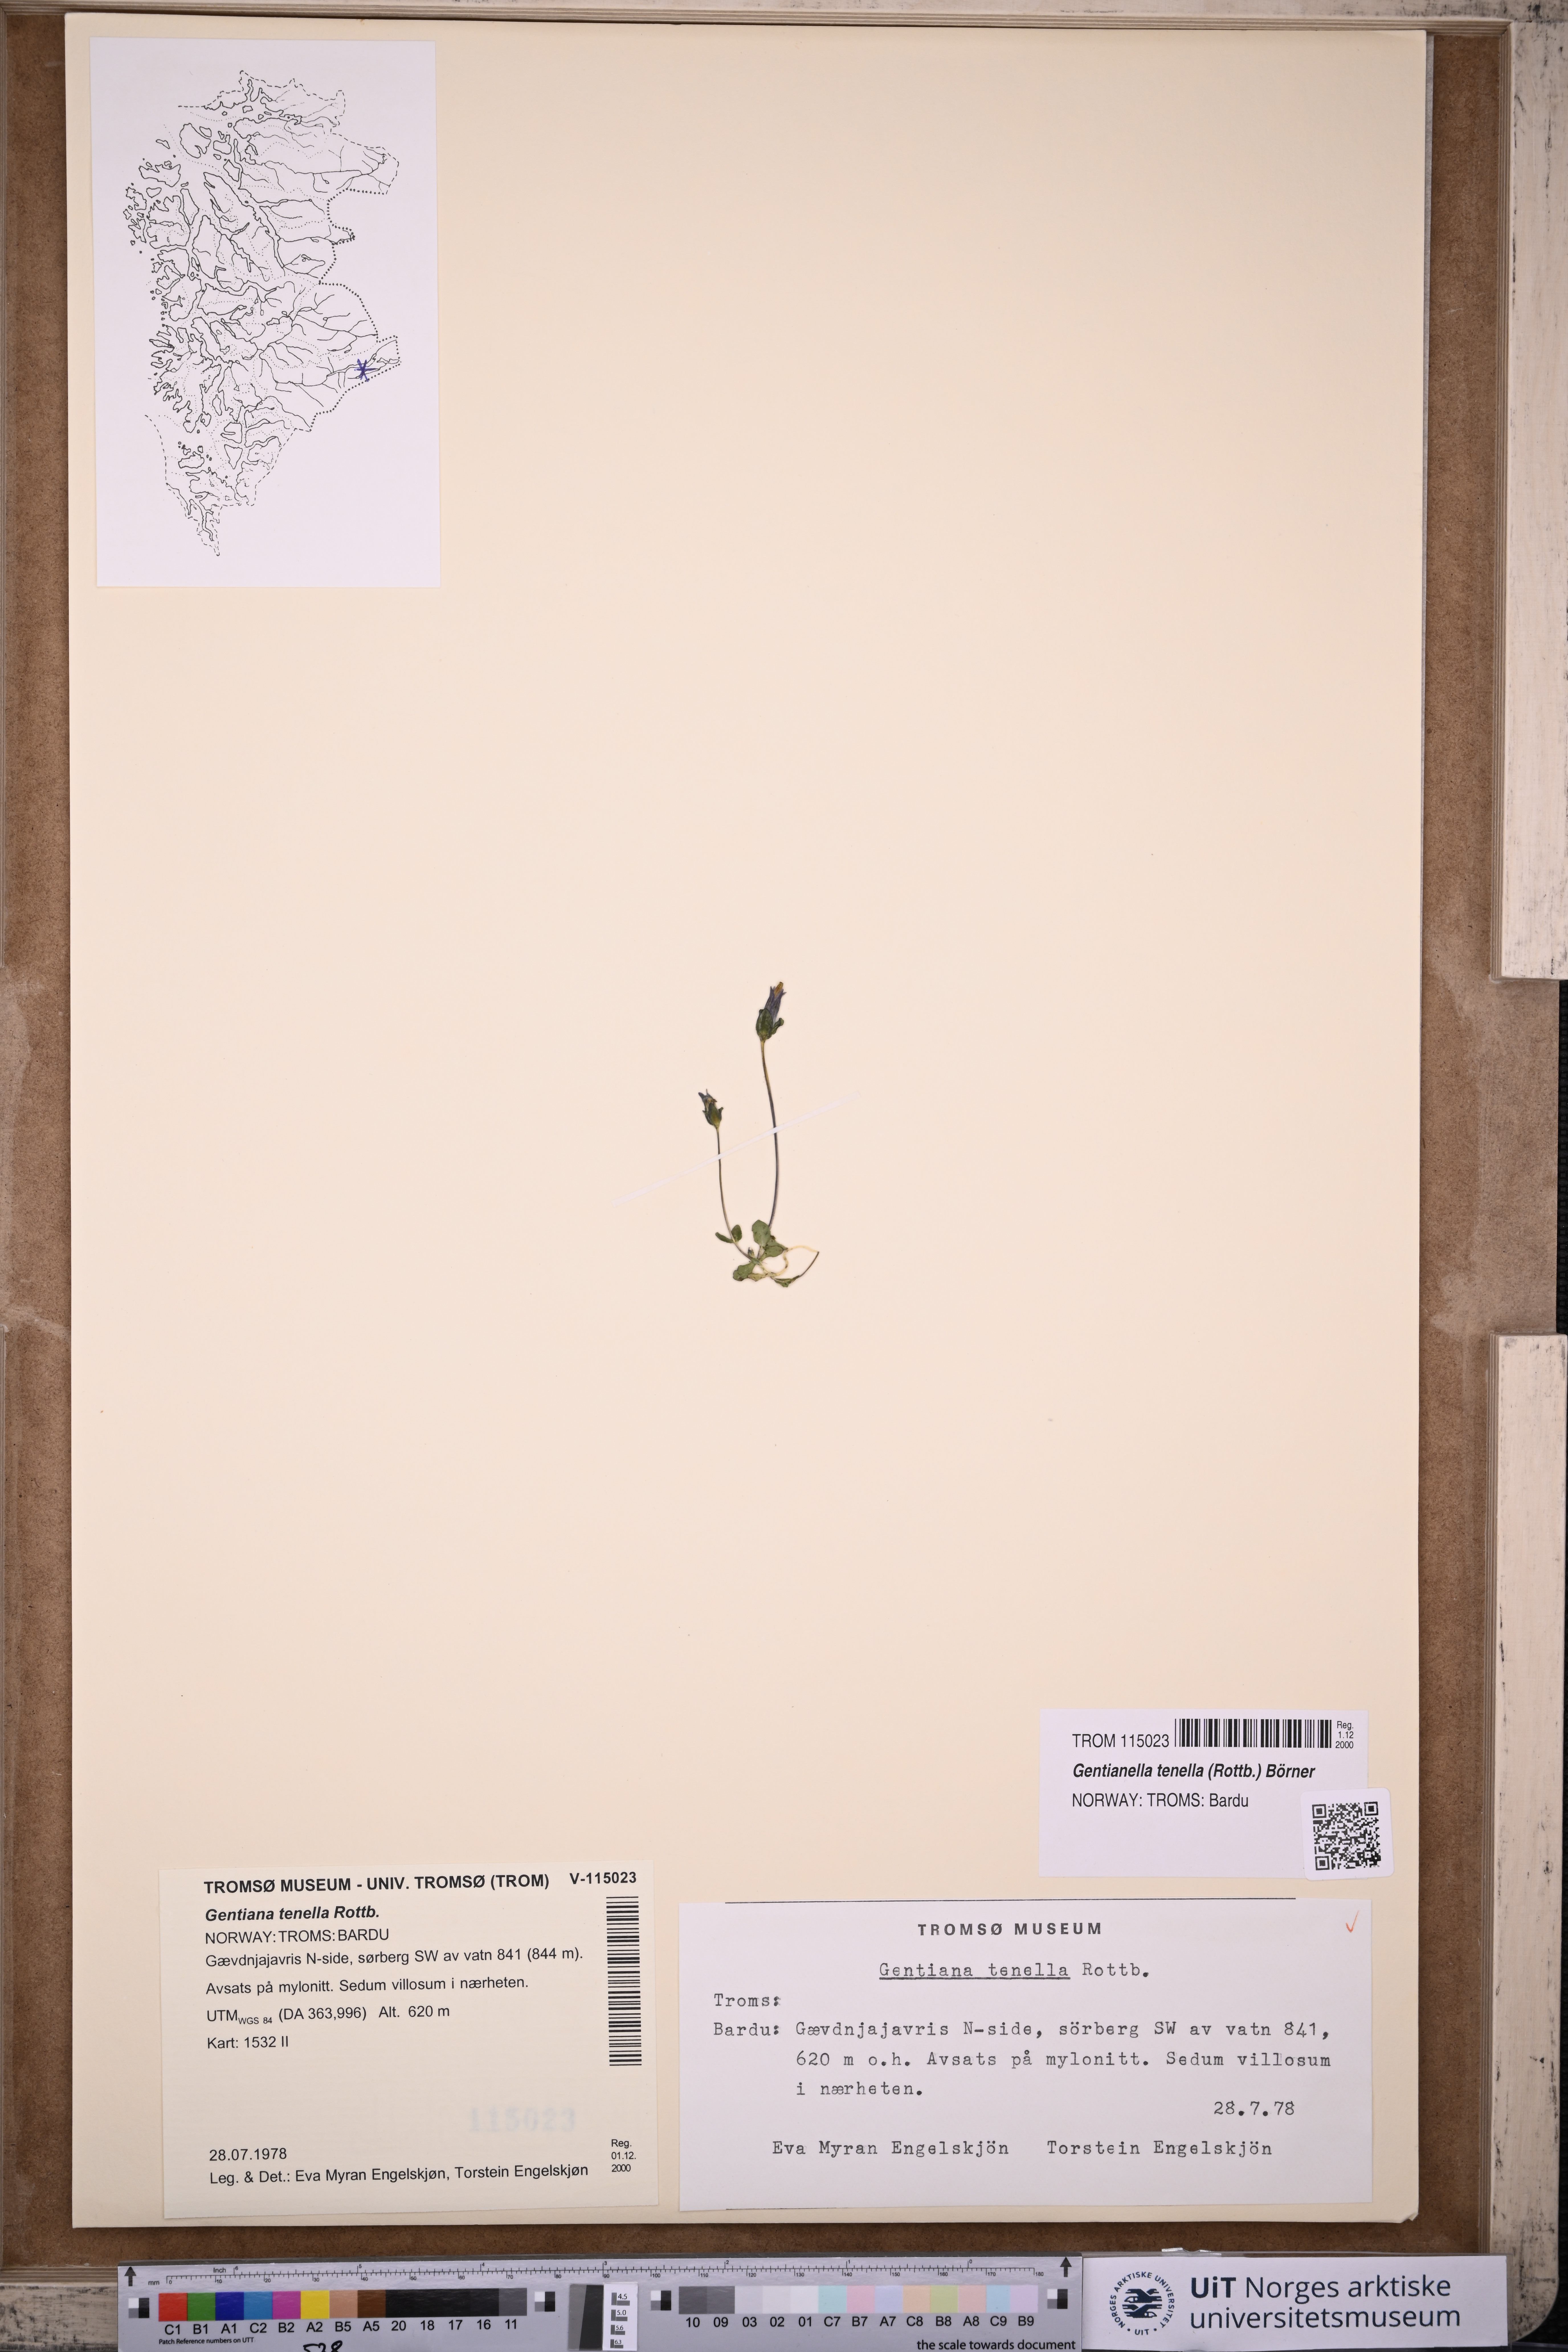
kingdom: Plantae
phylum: Tracheophyta
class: Magnoliopsida
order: Gentianales
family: Gentianaceae
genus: Comastoma
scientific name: Comastoma tenellum
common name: Dane's dwarf gentian
